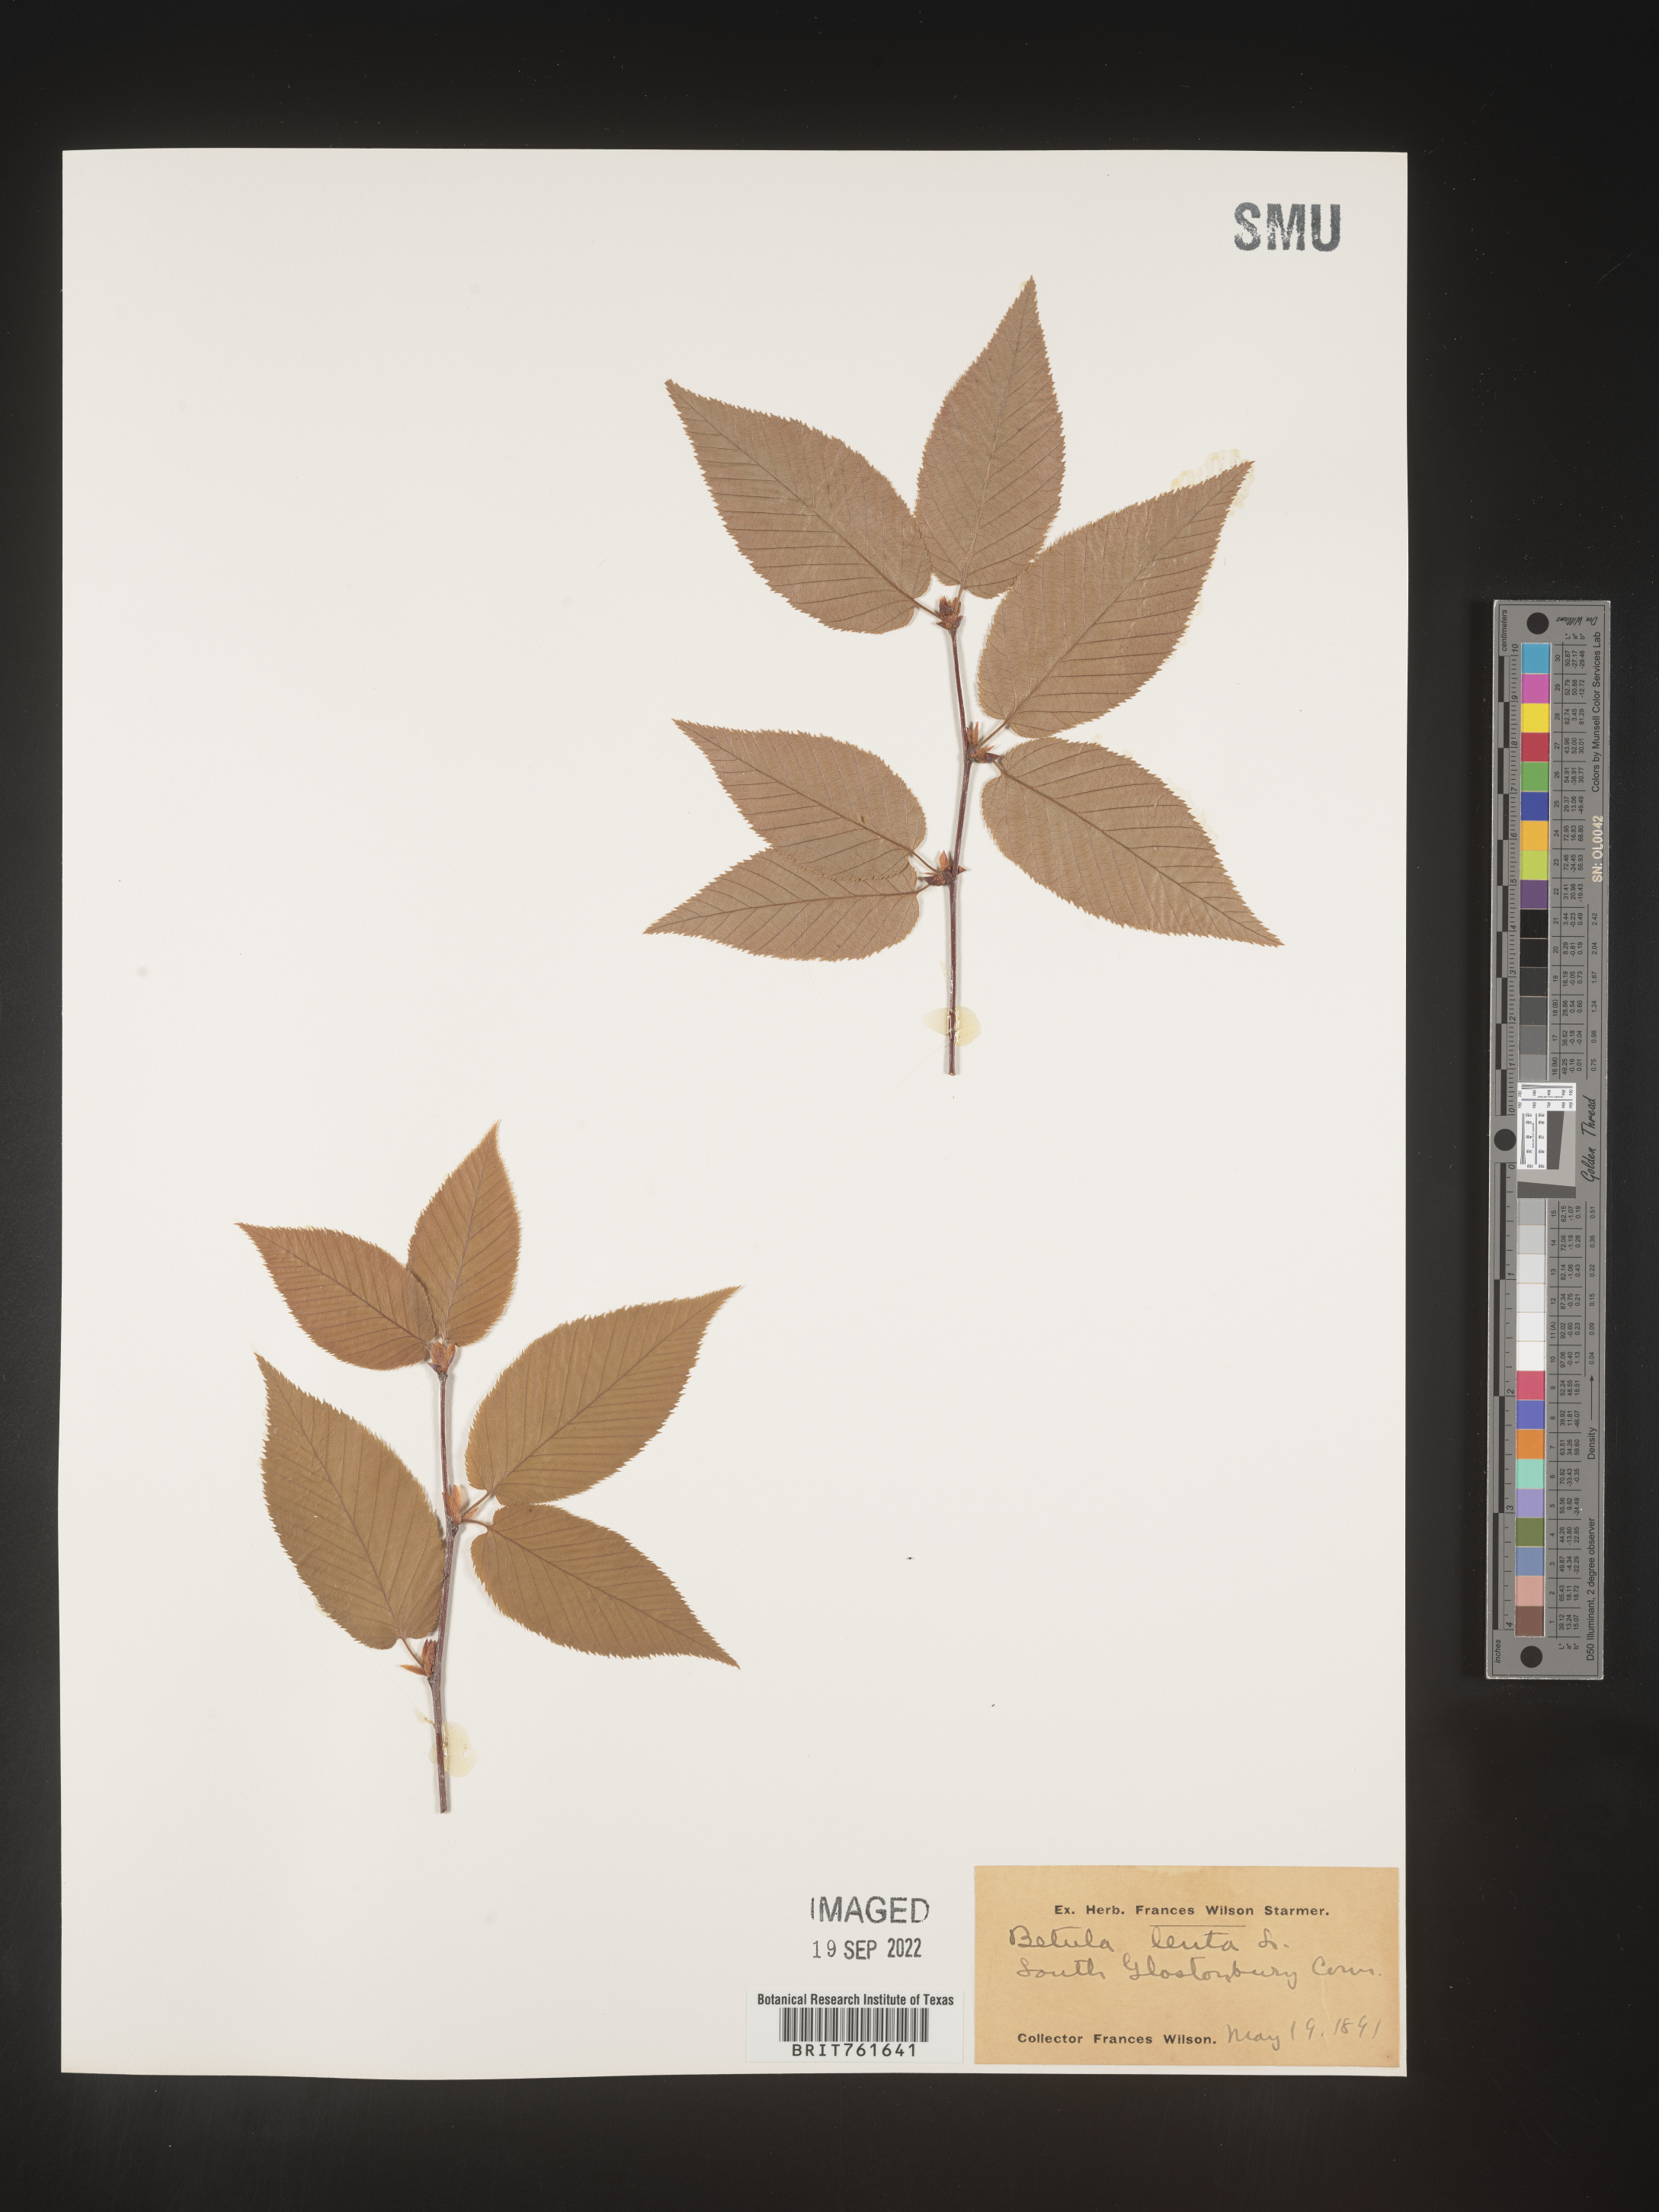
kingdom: Plantae
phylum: Tracheophyta
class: Magnoliopsida
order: Fagales
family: Betulaceae
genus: Betula
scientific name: Betula lenta
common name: Black birch
